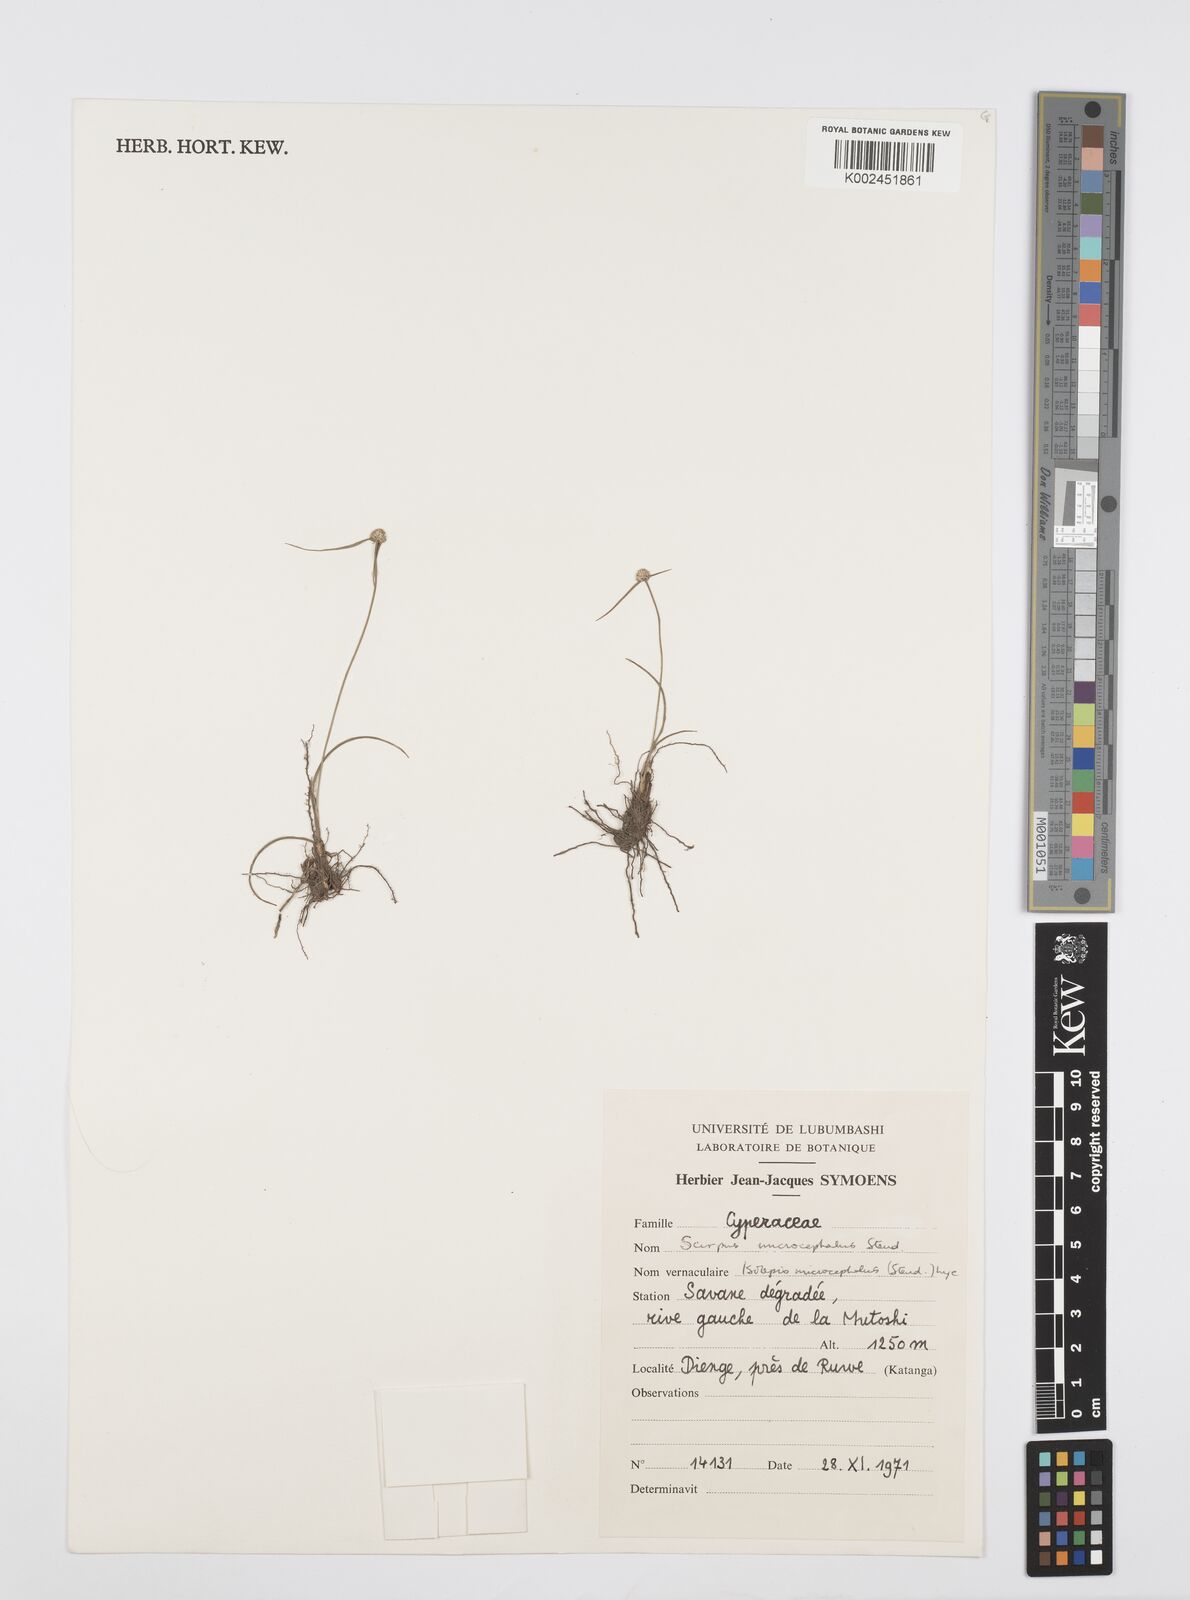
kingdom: Plantae
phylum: Tracheophyta
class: Liliopsida
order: Poales
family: Cyperaceae
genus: Cyperus
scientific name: Cyperus microcephalus
